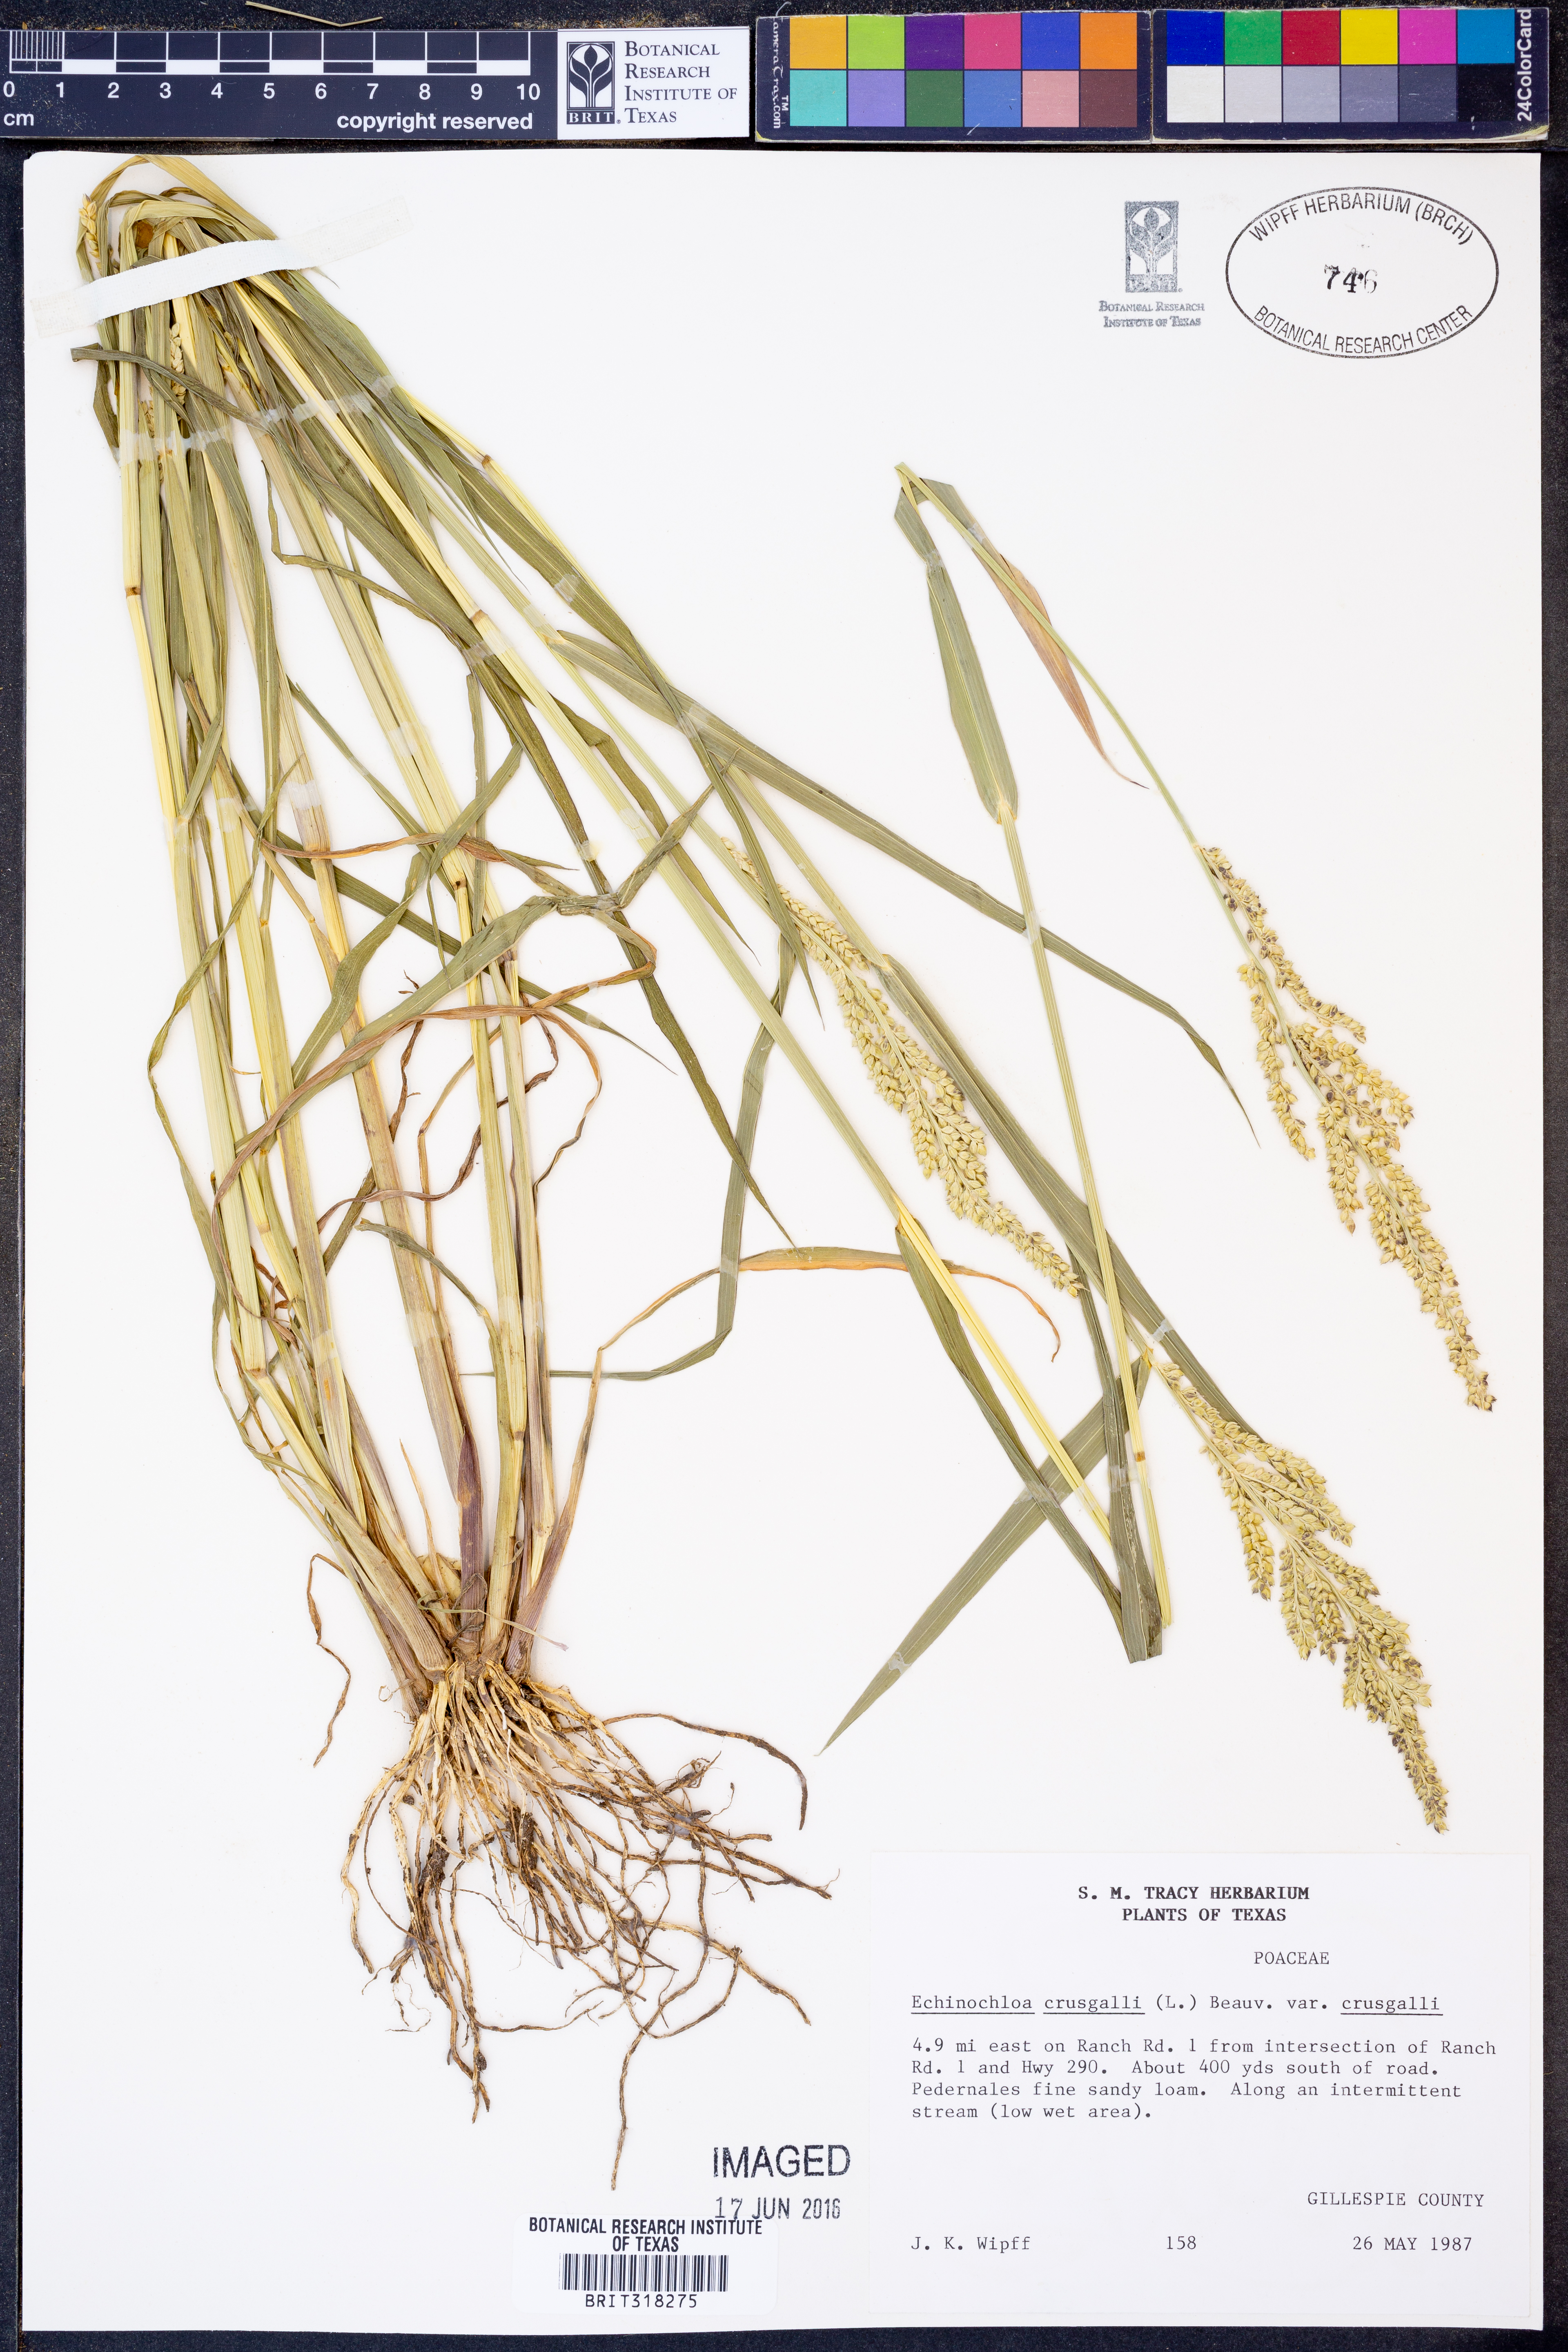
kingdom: Plantae
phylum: Tracheophyta
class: Liliopsida
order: Poales
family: Poaceae
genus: Echinochloa
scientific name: Echinochloa crus-galli
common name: Cockspur
